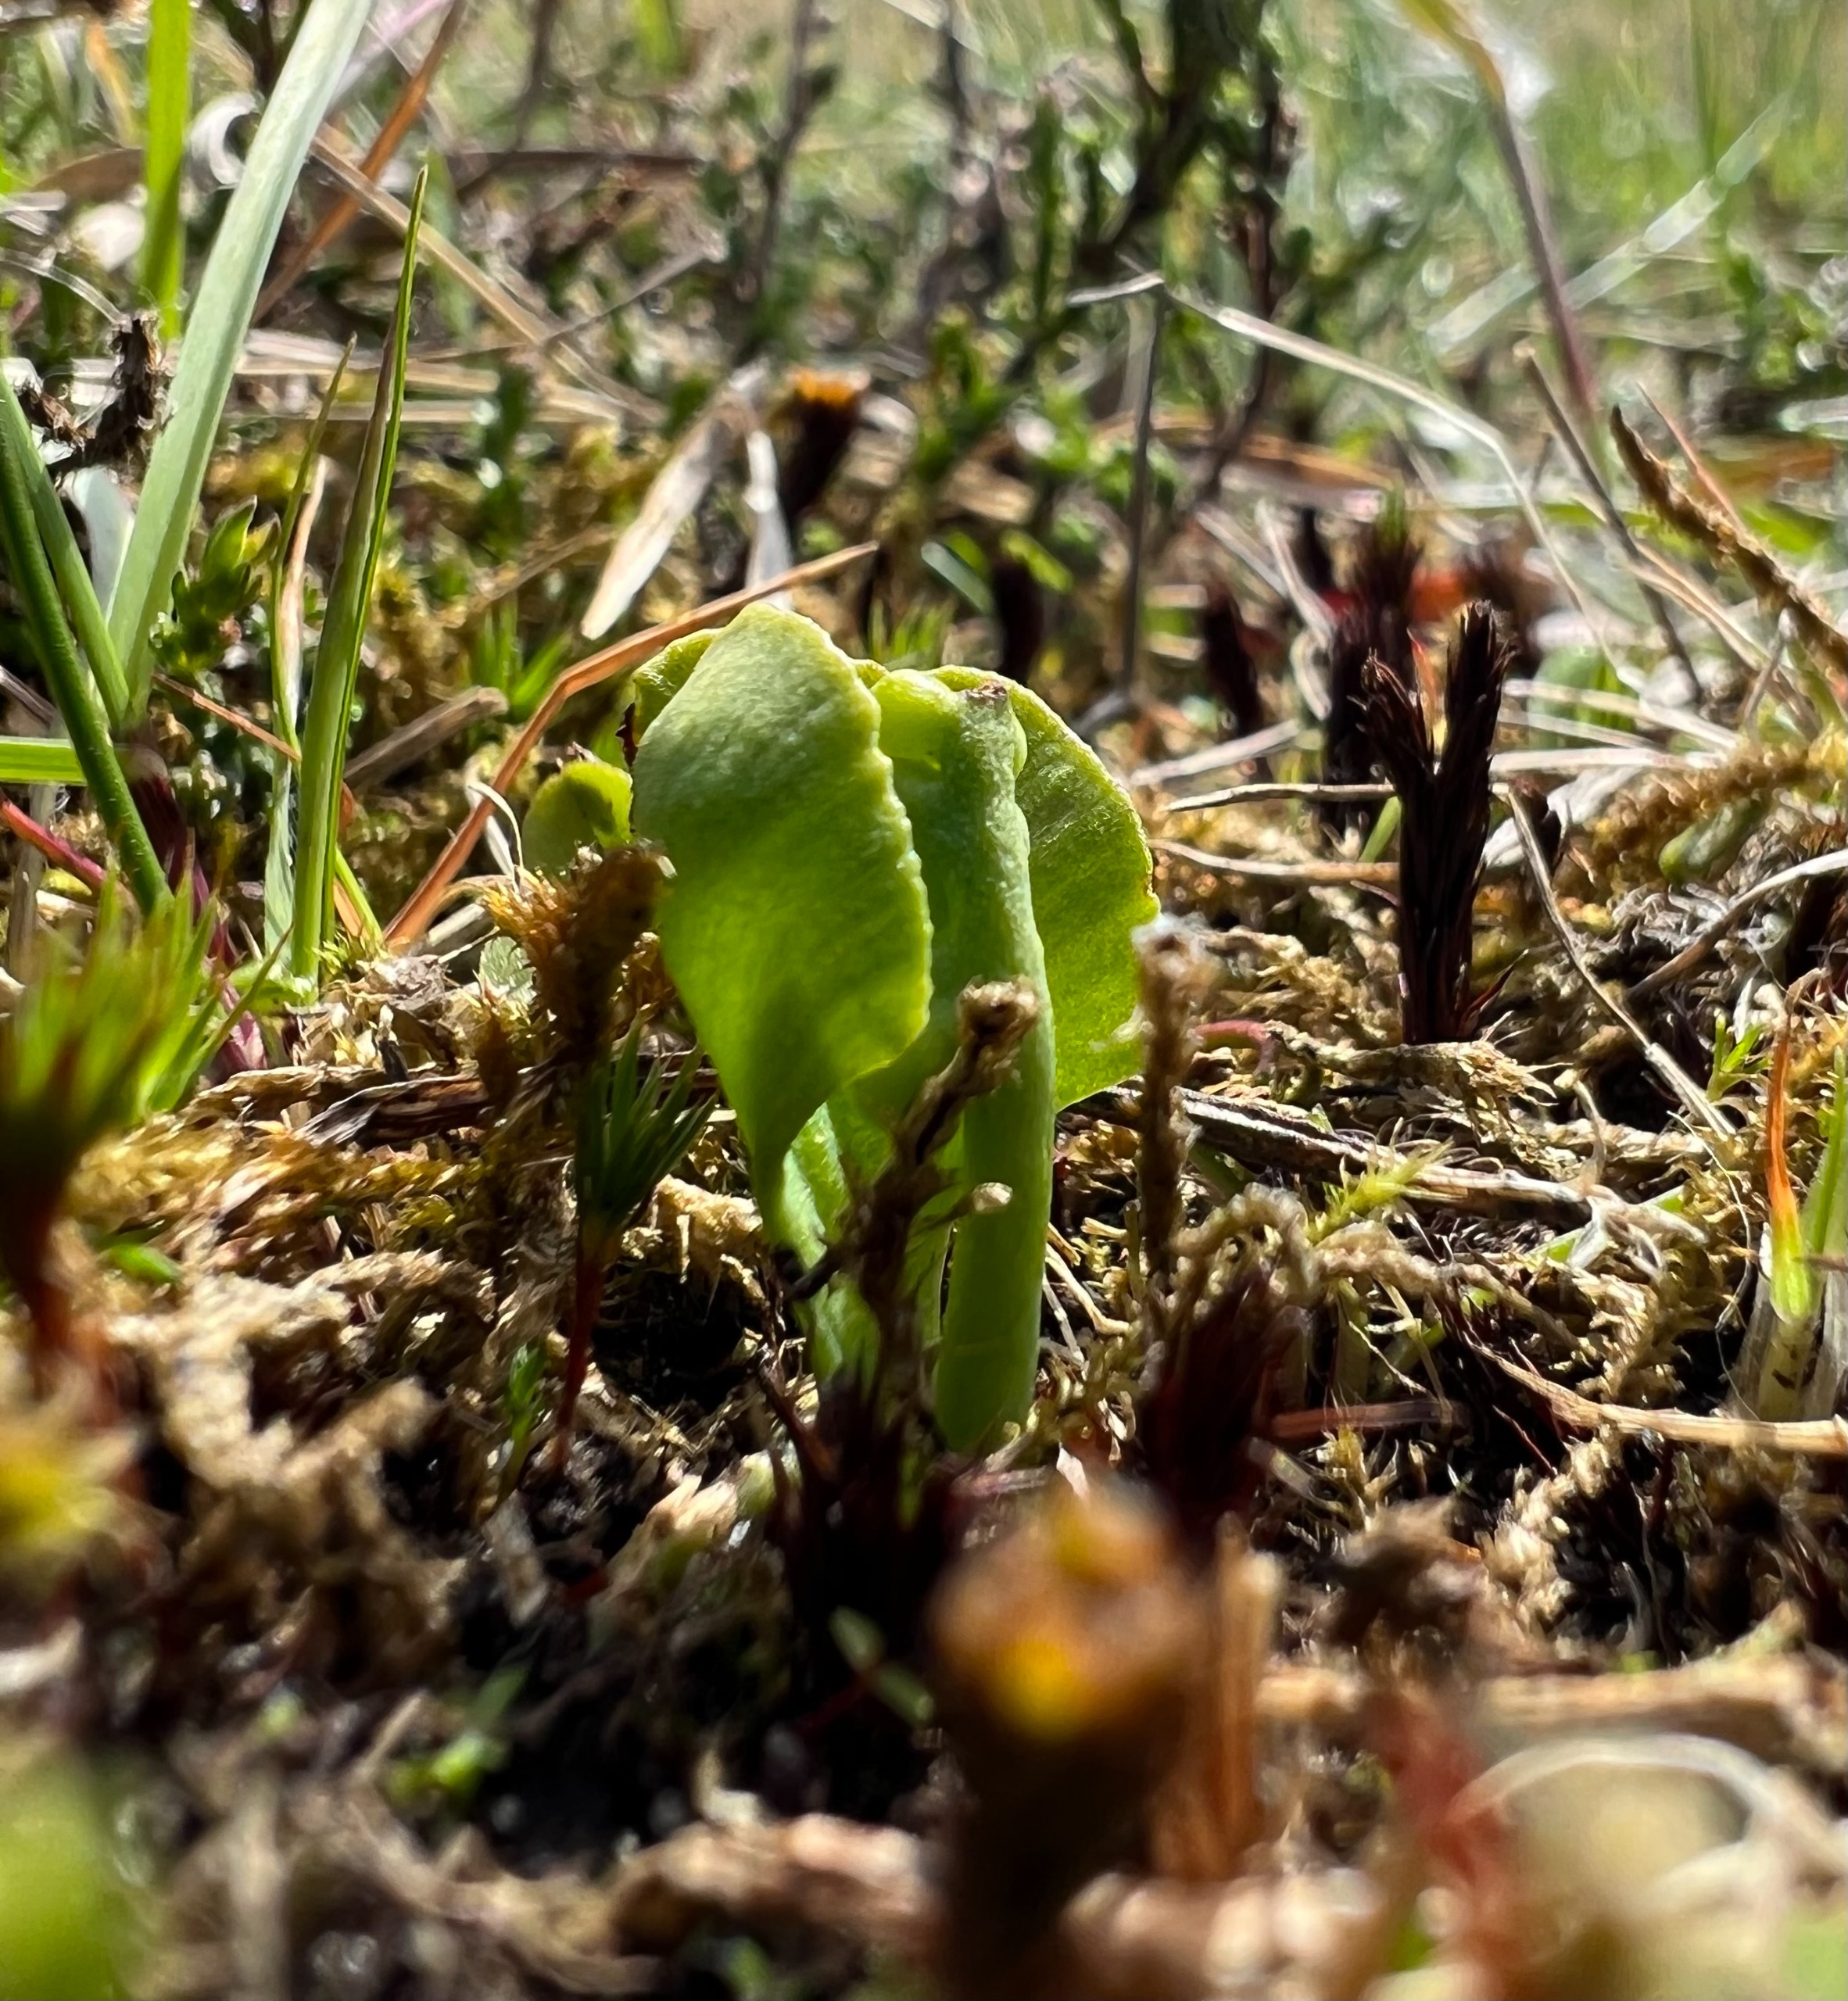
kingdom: Plantae
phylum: Tracheophyta
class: Polypodiopsida
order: Ophioglossales
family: Ophioglossaceae
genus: Botrychium
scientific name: Botrychium simplex
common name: Enkelt månerude
